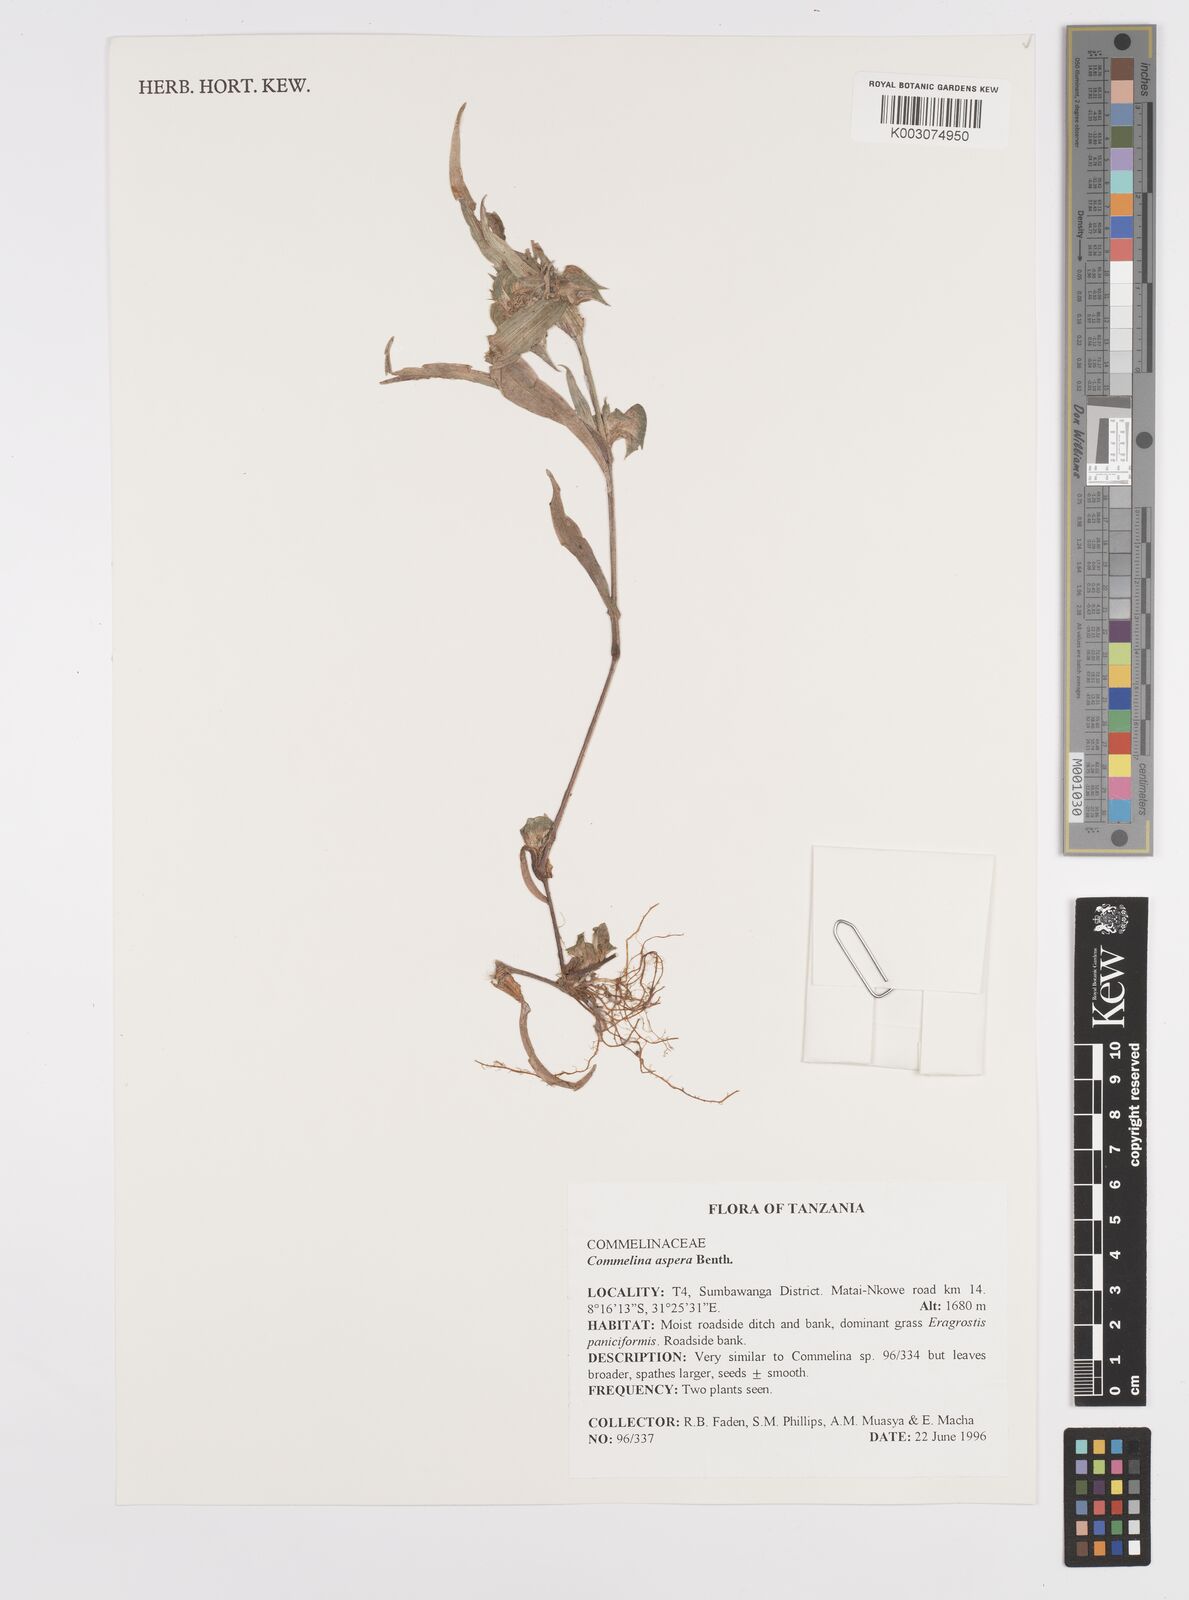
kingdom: Plantae
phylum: Tracheophyta
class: Liliopsida
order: Commelinales
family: Commelinaceae
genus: Commelina
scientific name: Commelina aspera
